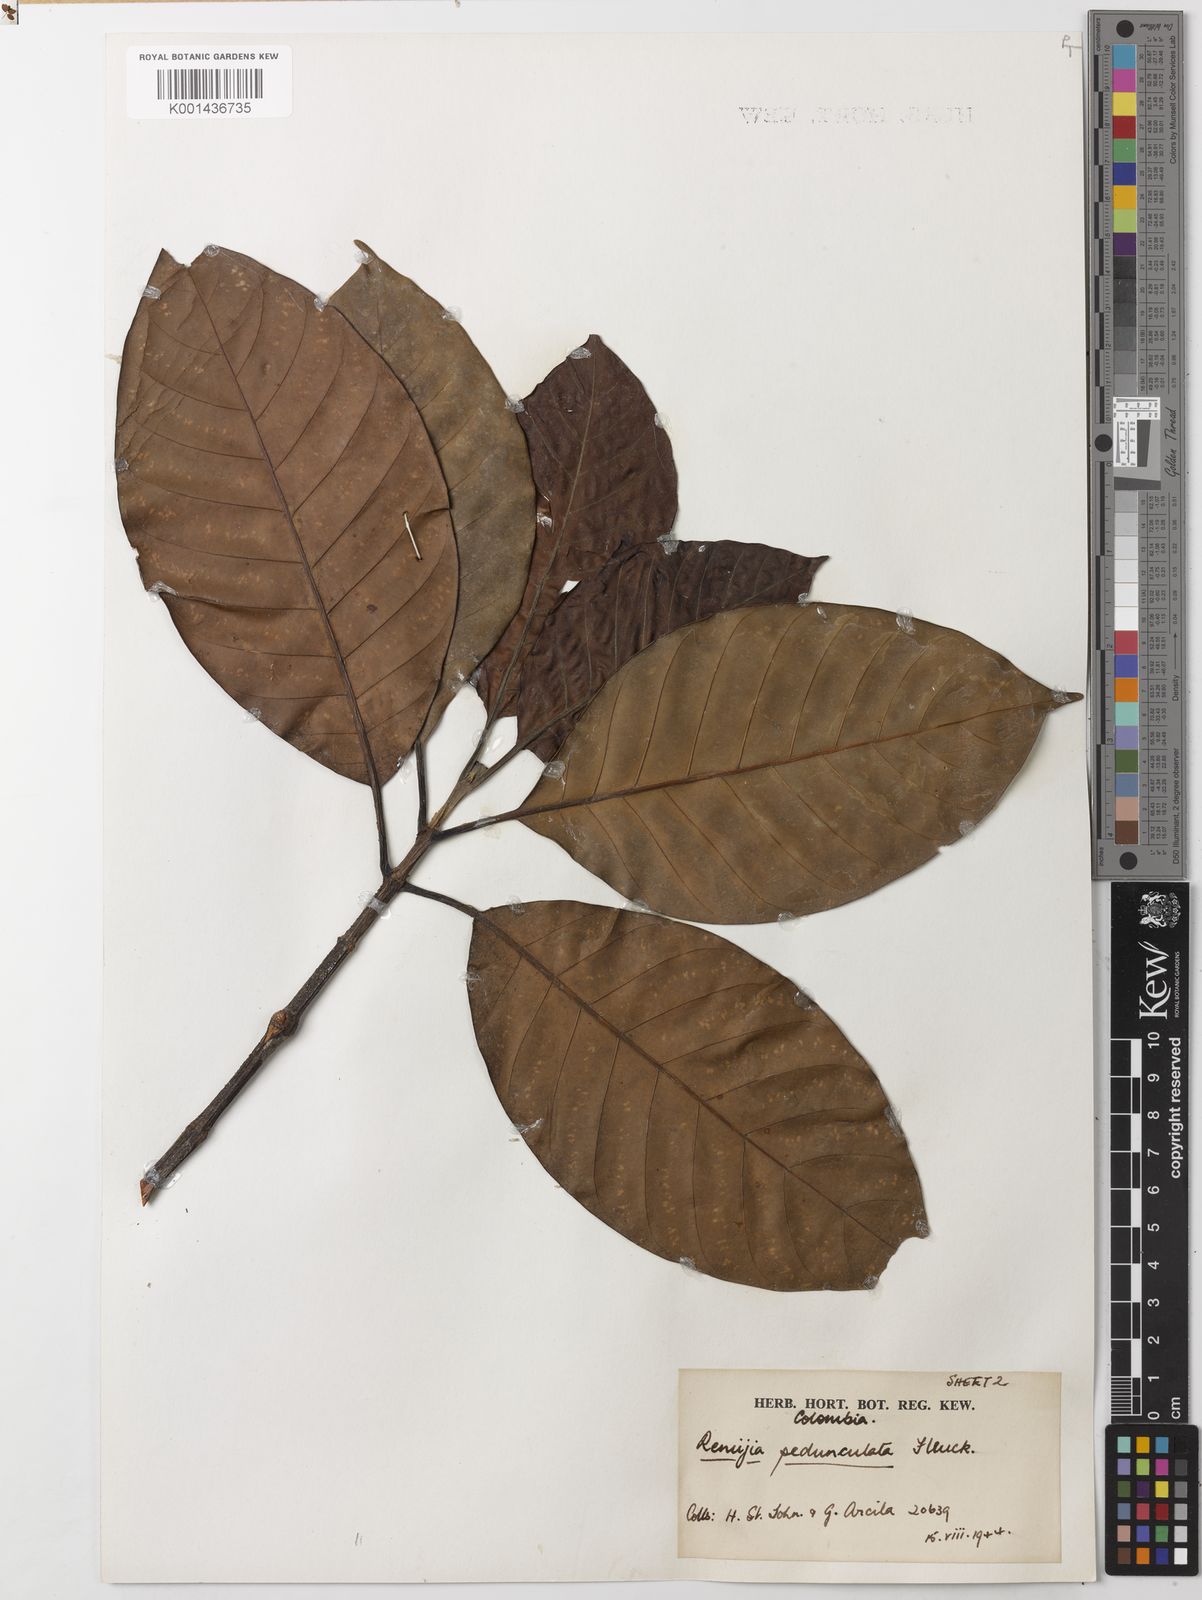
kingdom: Plantae
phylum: Tracheophyta
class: Magnoliopsida
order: Gentianales
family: Rubiaceae
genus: Ciliosemina
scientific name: Ciliosemina pedunculata
